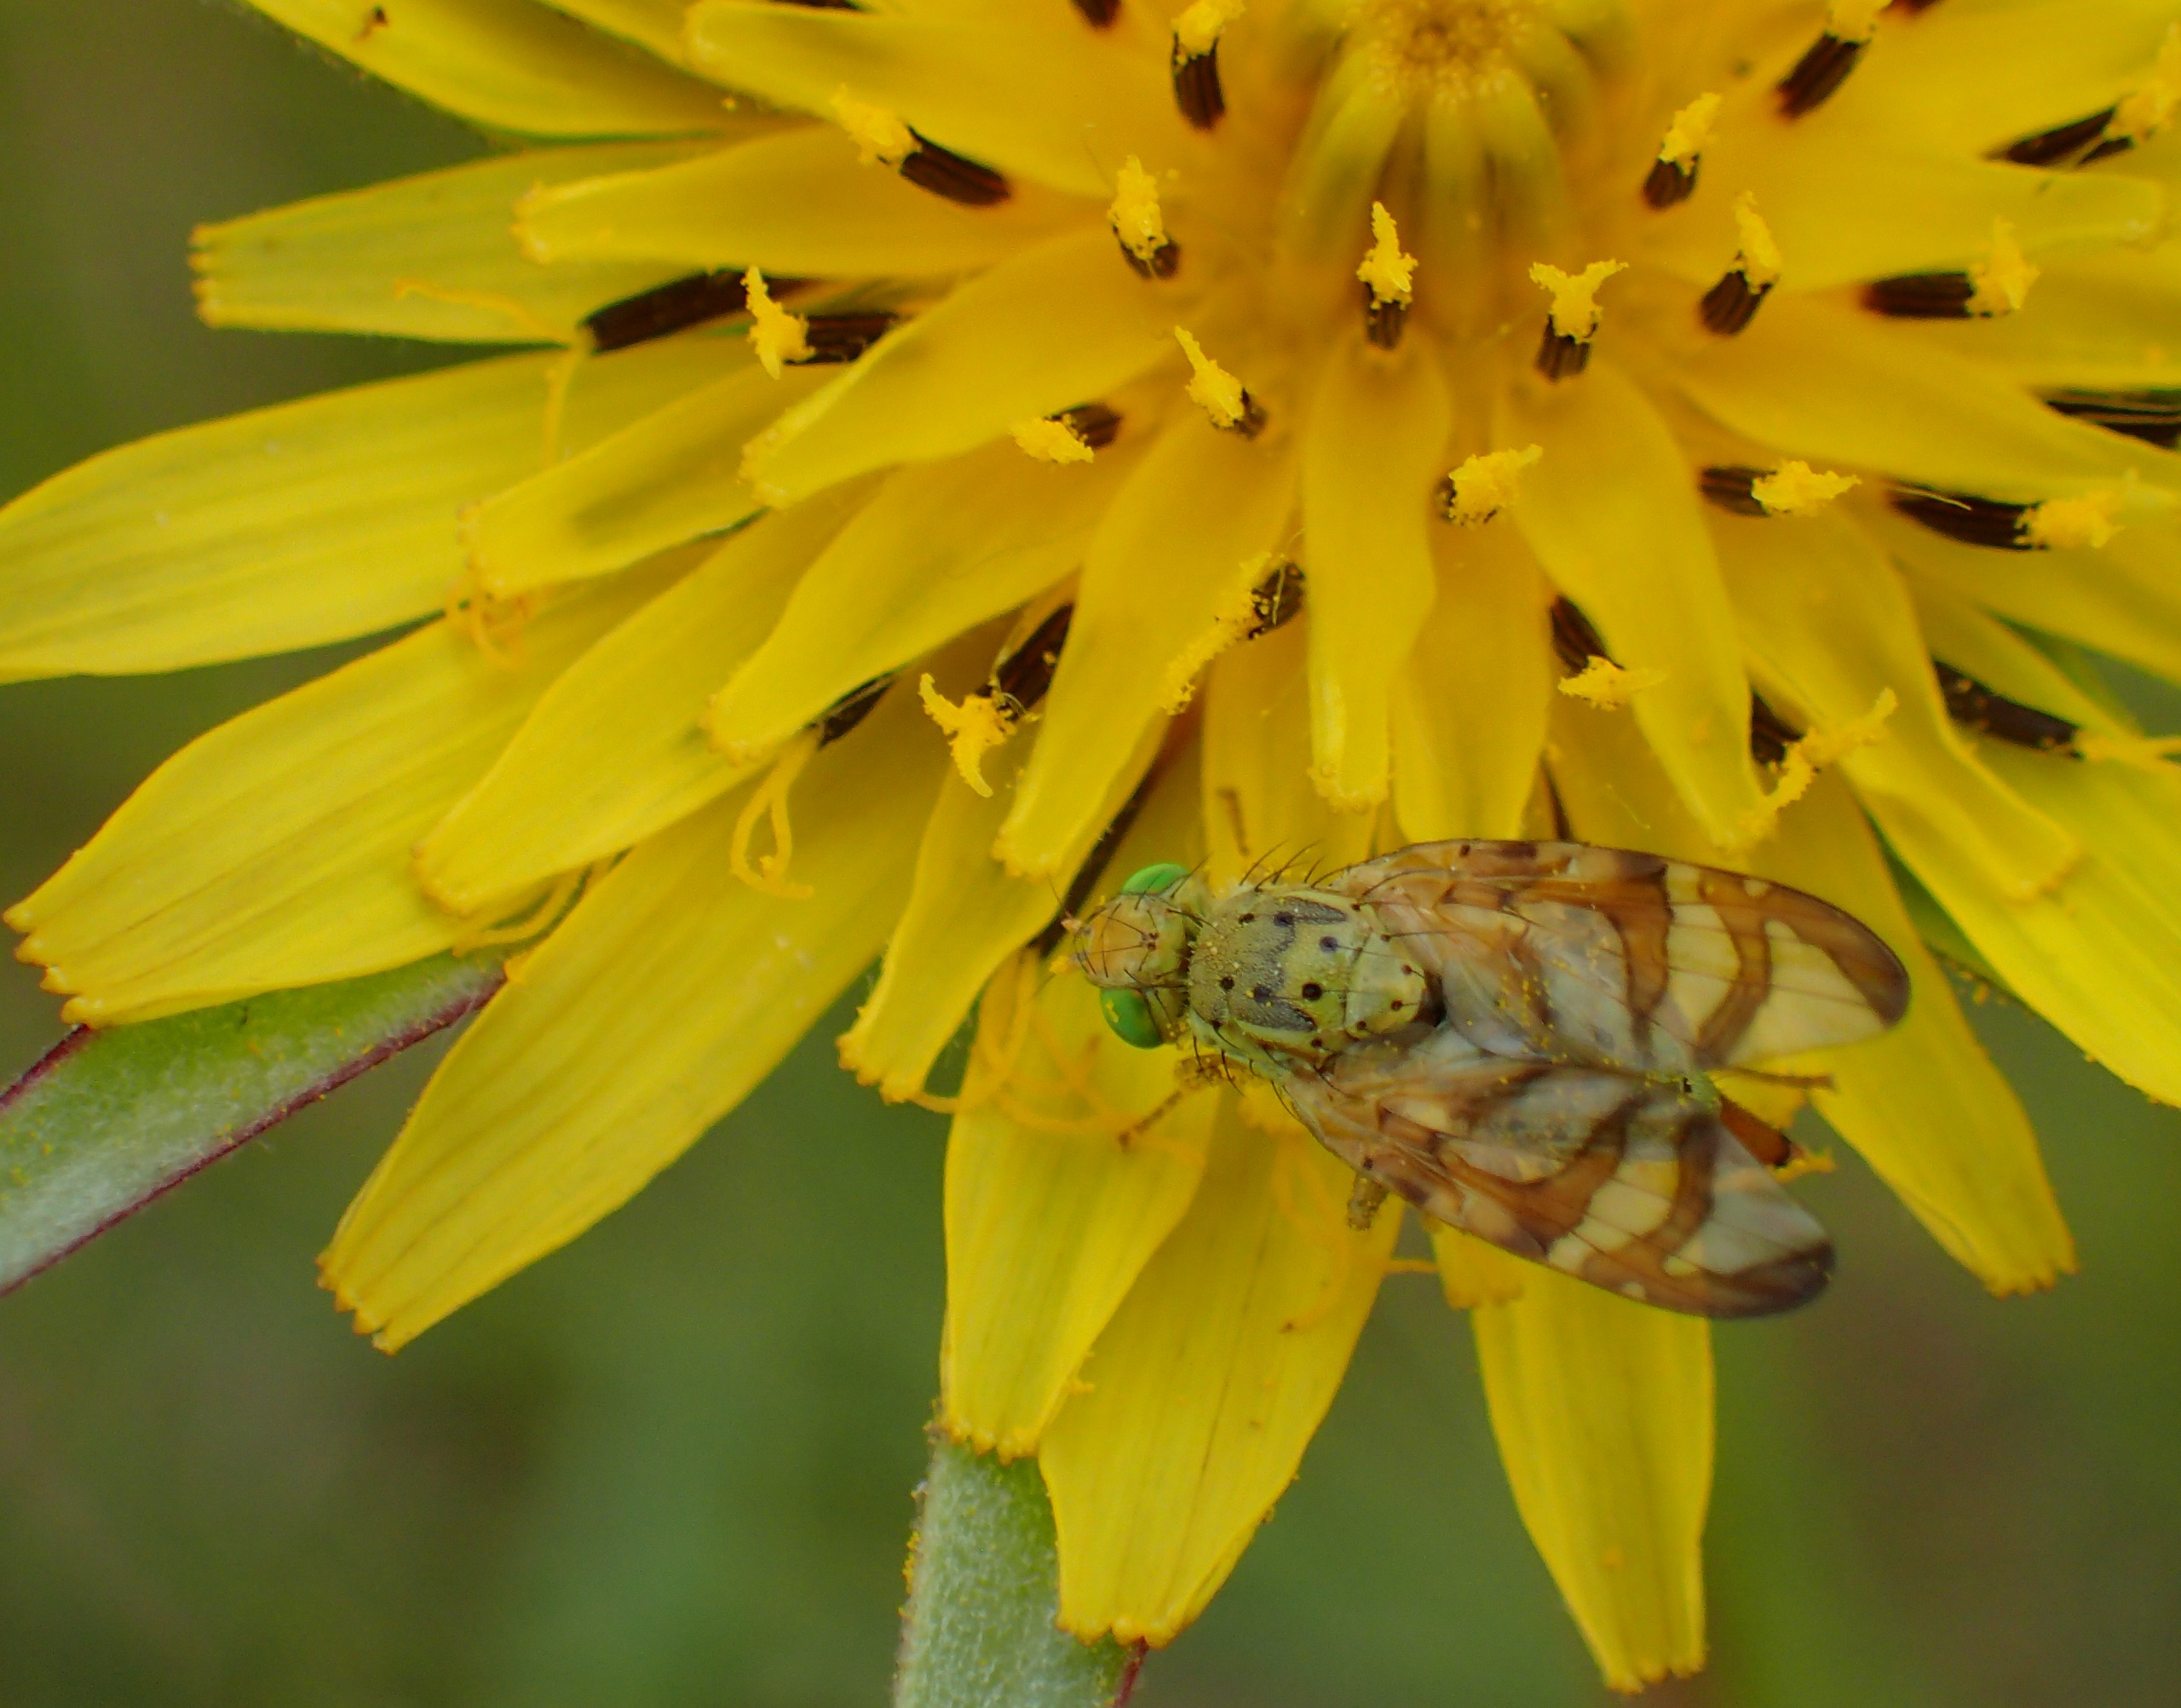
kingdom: Animalia
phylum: Arthropoda
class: Insecta
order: Diptera
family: Tephritidae
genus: Orellia
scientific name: Orellia falcata
